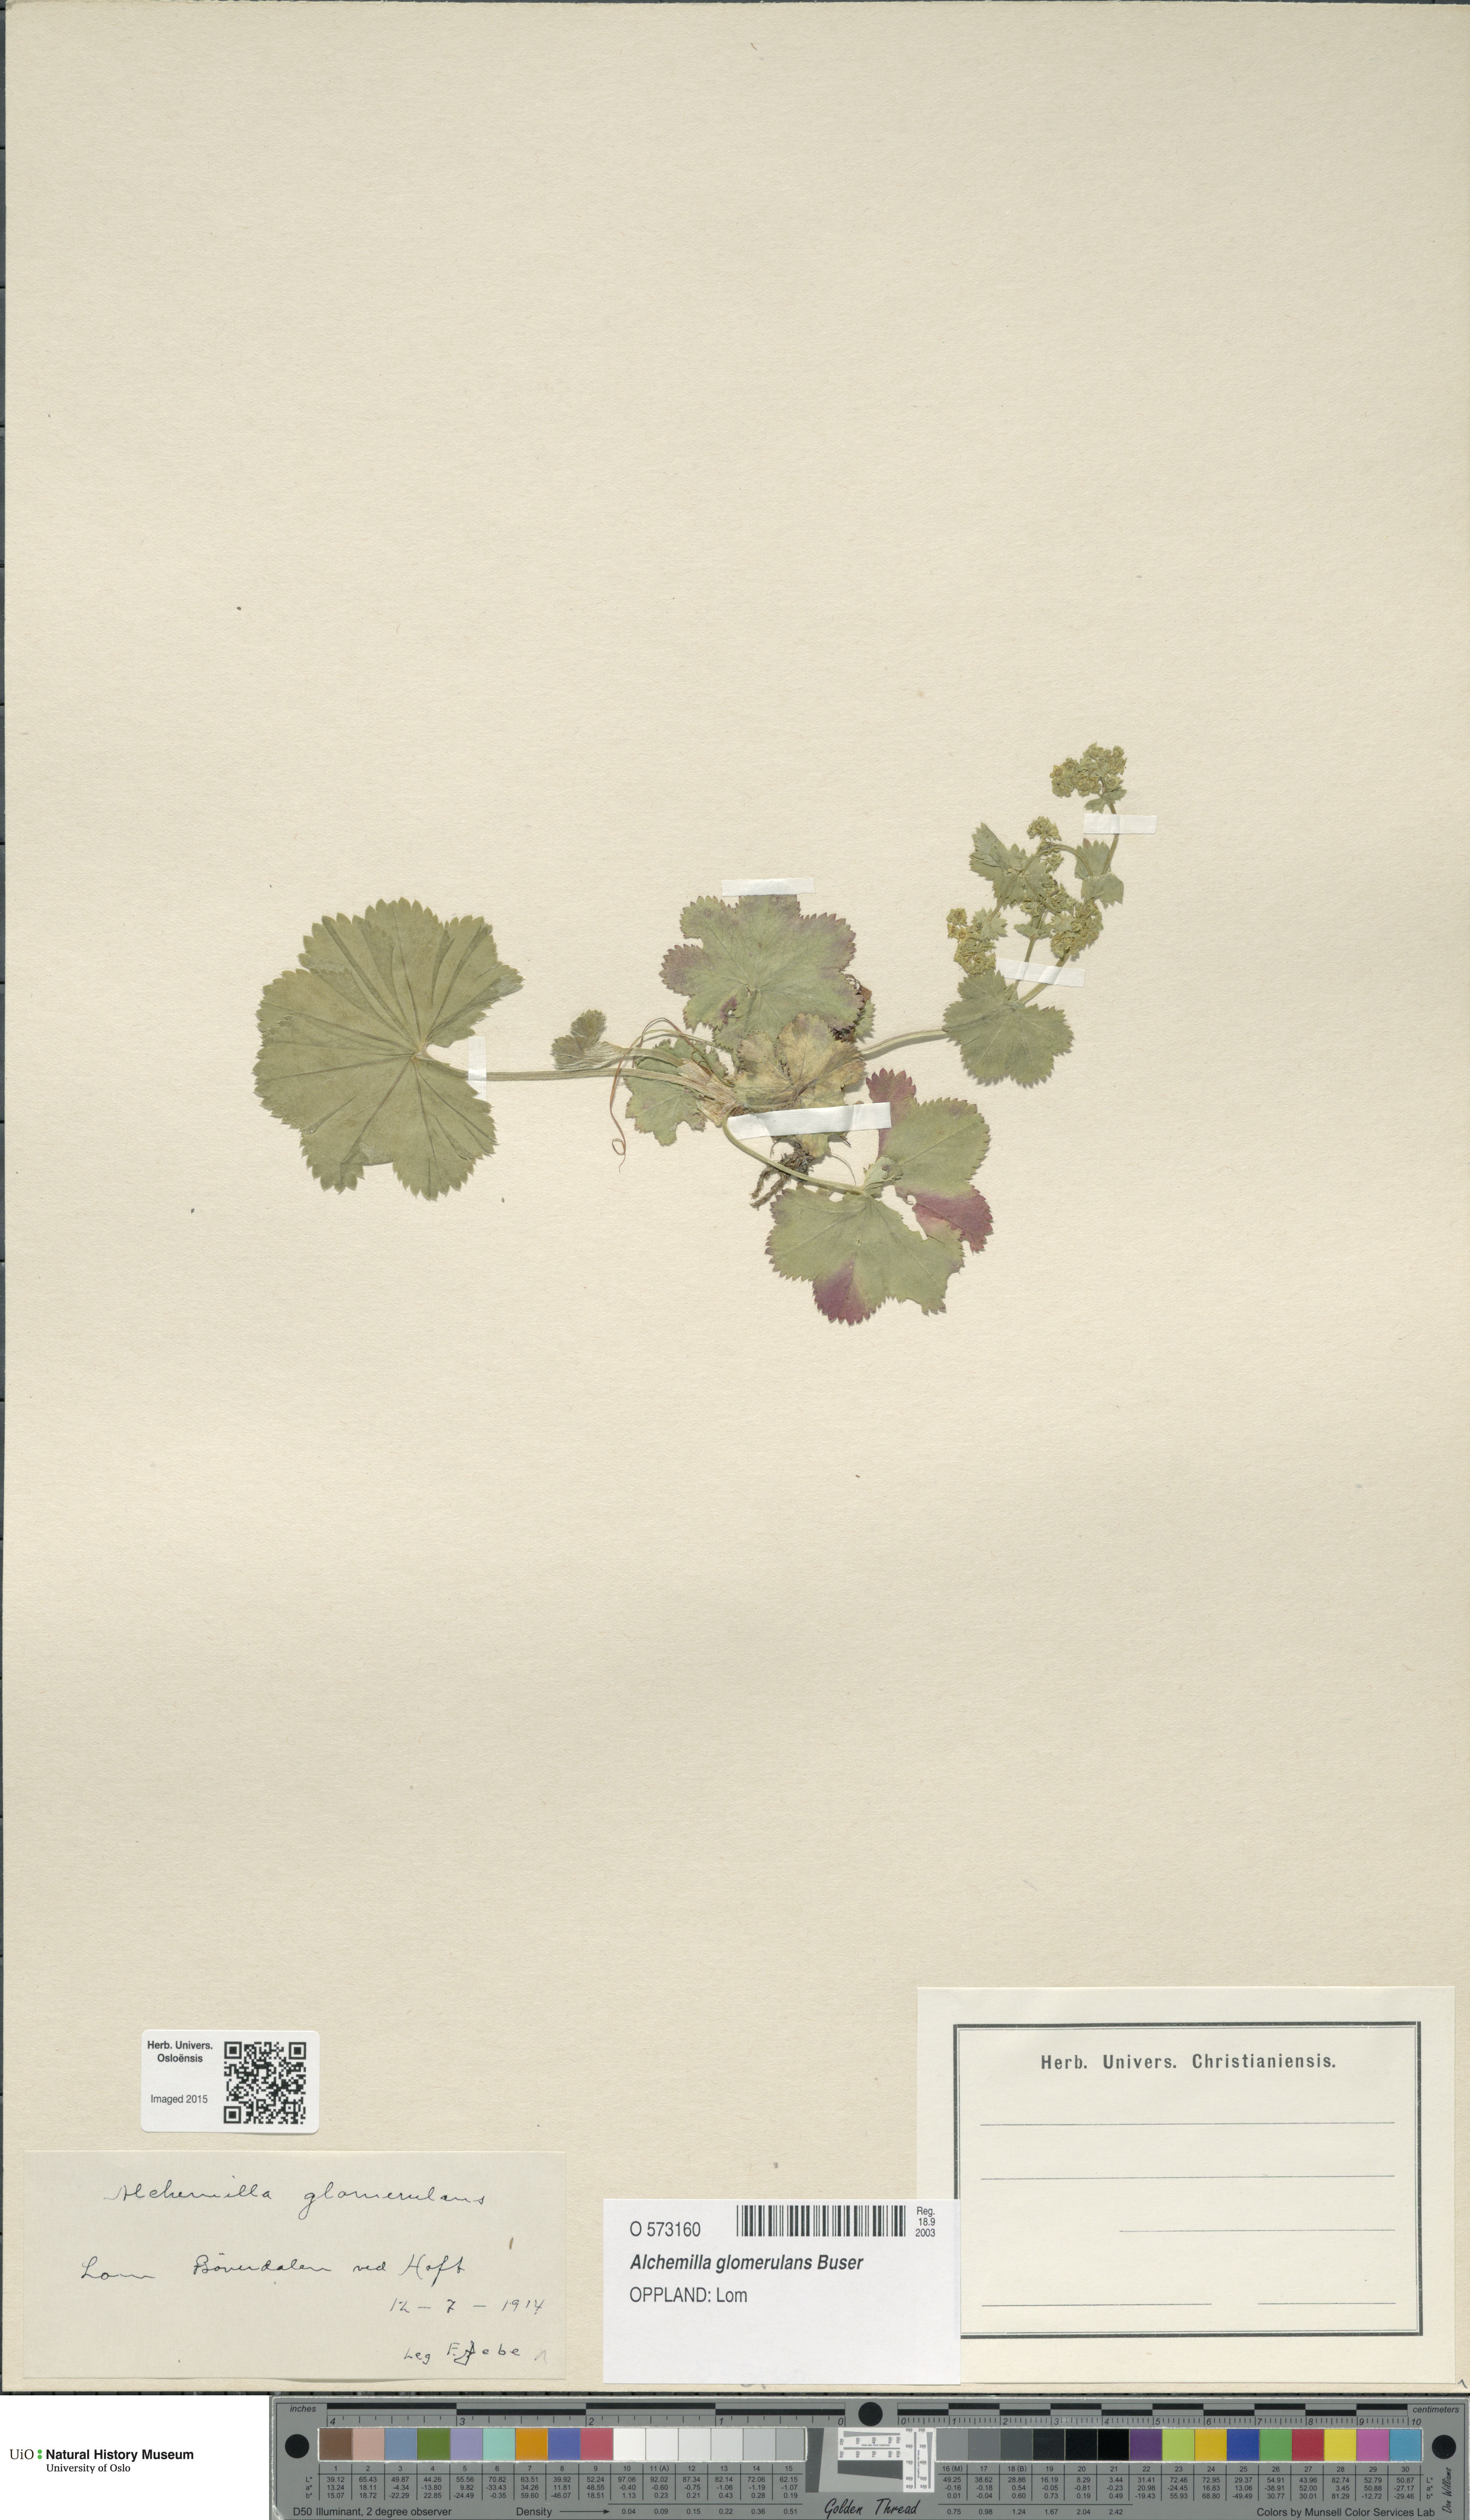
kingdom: Plantae
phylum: Tracheophyta
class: Magnoliopsida
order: Rosales
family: Rosaceae
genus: Alchemilla
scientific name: Alchemilla glomerulans
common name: Clustered lady's mantle
